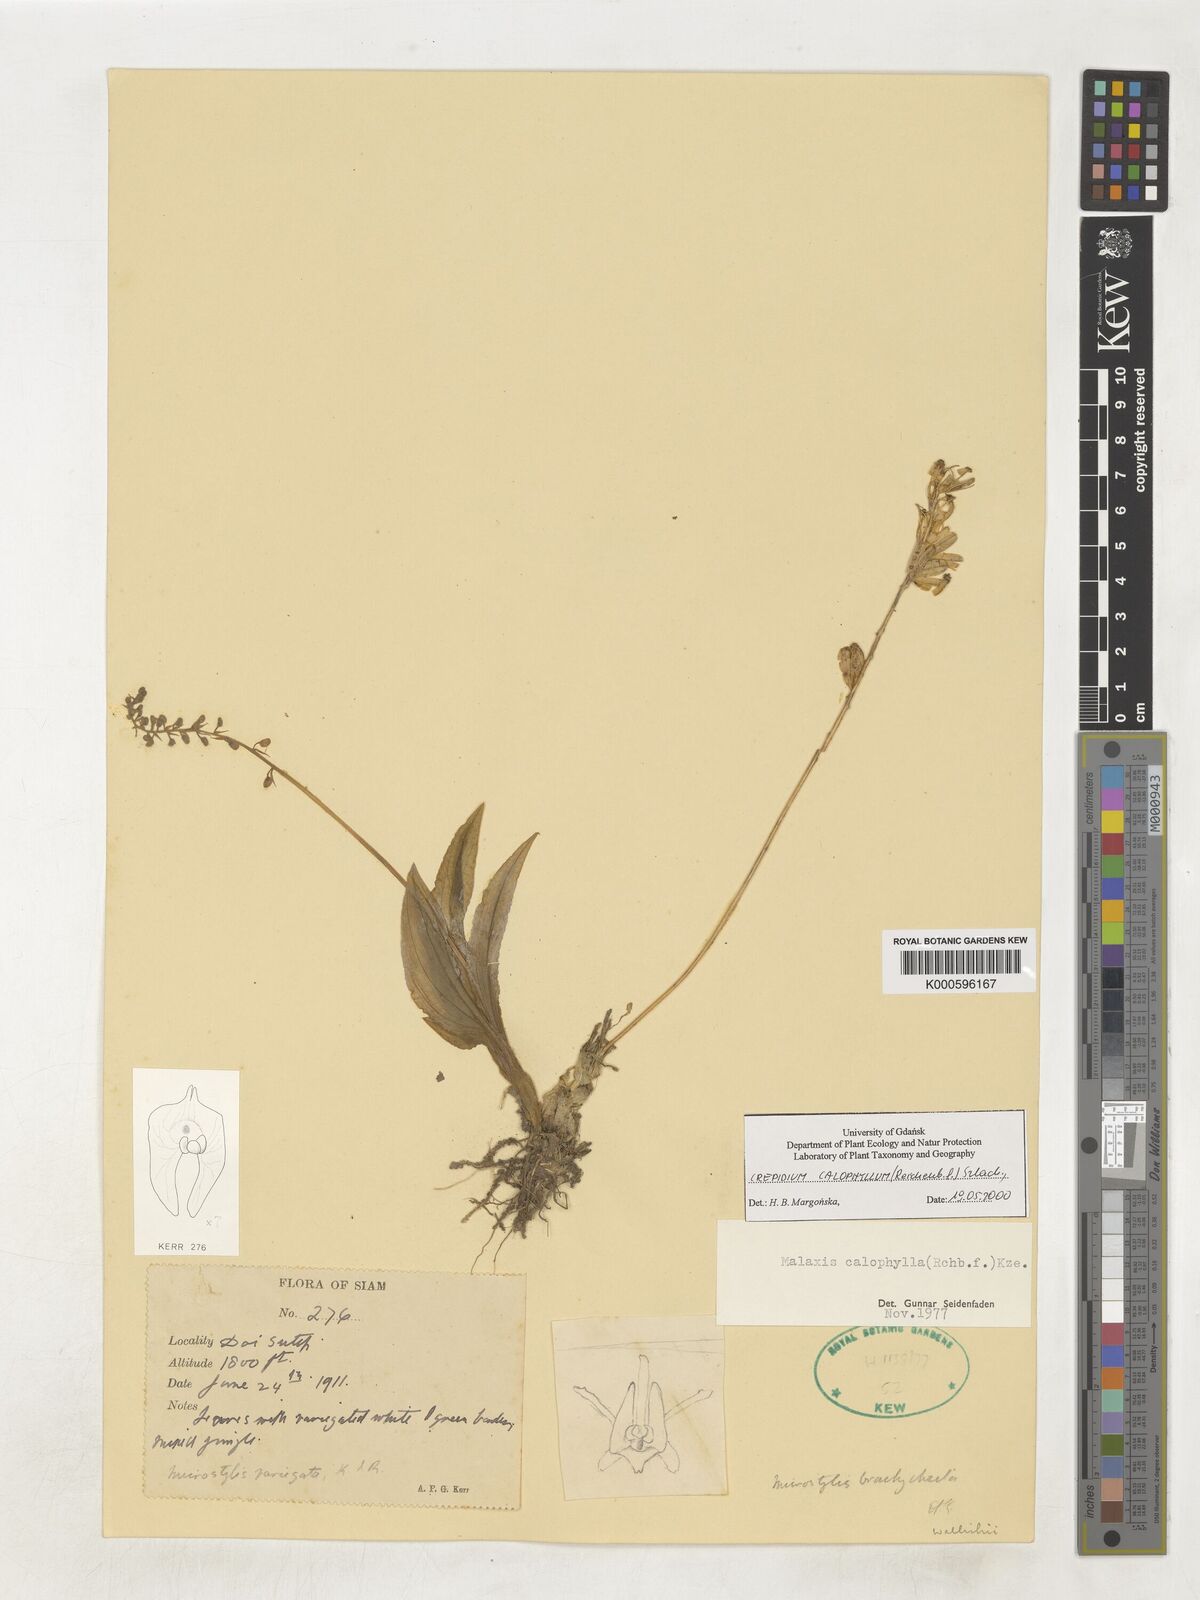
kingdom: Plantae
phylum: Tracheophyta
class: Liliopsida
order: Asparagales
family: Orchidaceae
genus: Crepidium
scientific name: Crepidium calophyllum
